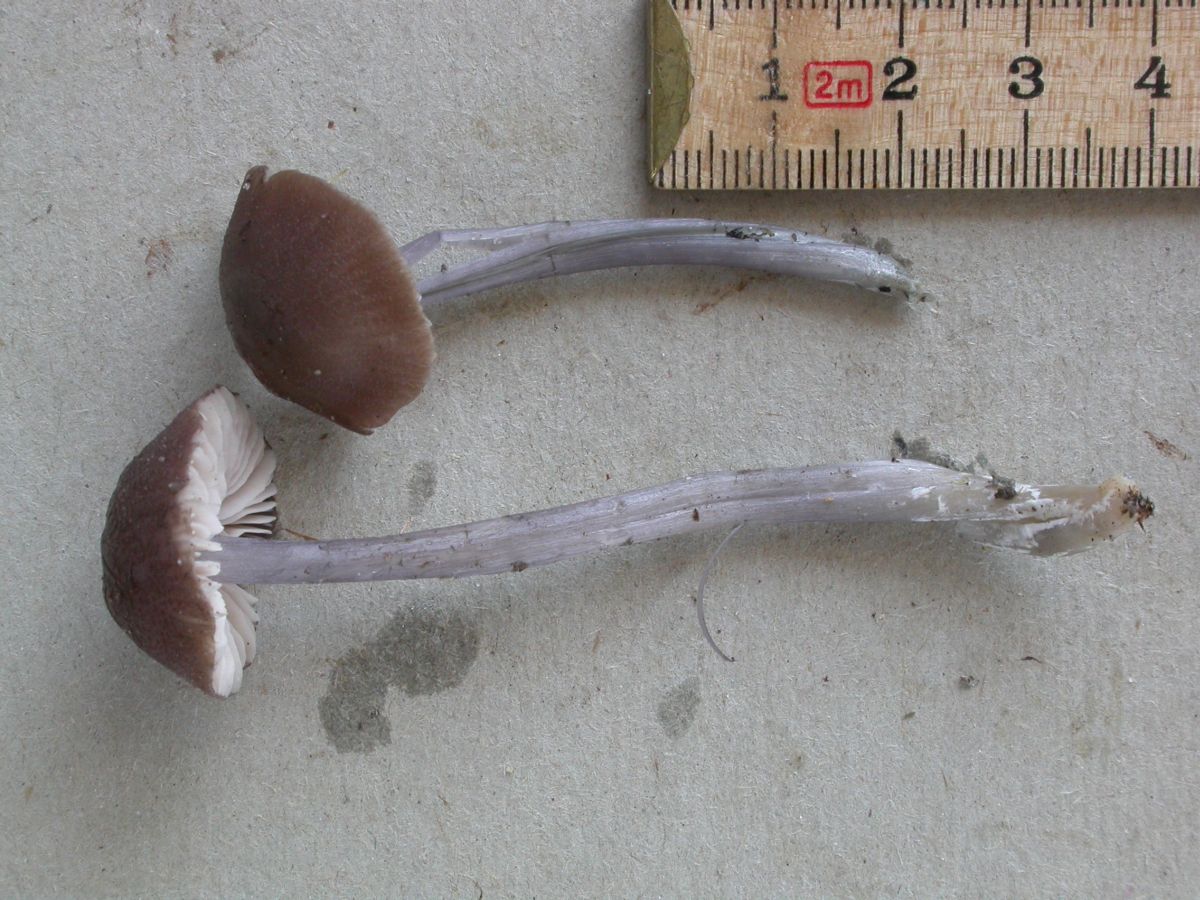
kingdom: Fungi
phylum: Basidiomycota
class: Agaricomycetes
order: Agaricales
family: Entolomataceae
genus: Entoloma
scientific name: Entoloma griseocyaneum
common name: gråblå rødblad
